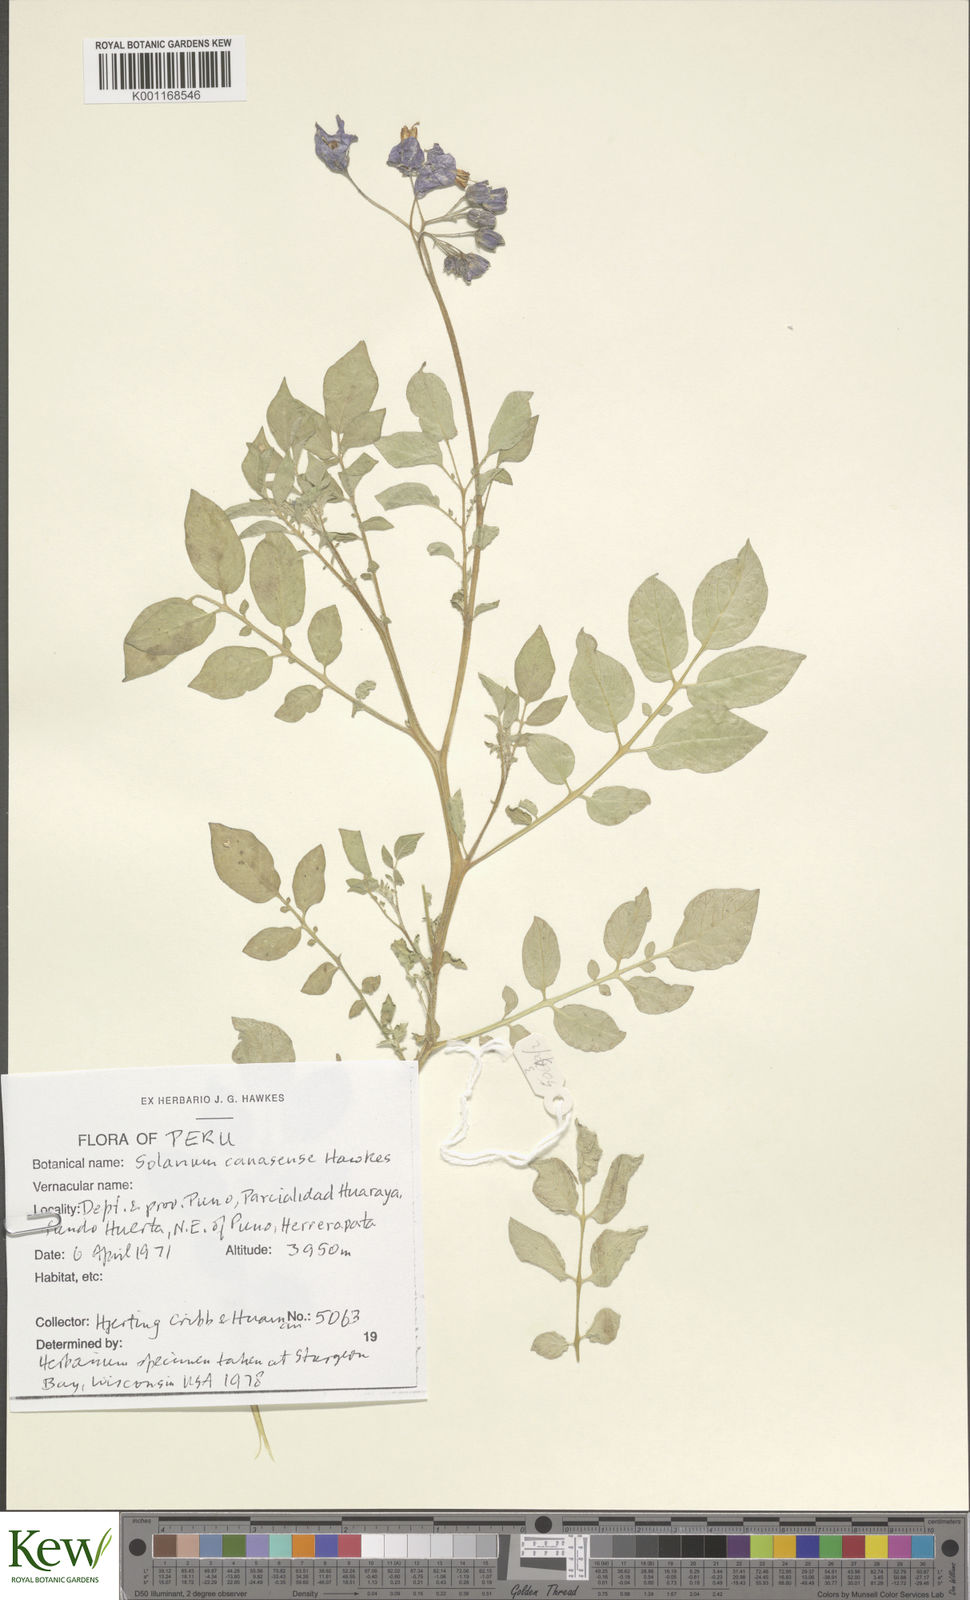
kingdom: Plantae
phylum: Tracheophyta
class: Magnoliopsida
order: Solanales
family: Solanaceae
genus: Solanum
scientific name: Solanum candolleanum
